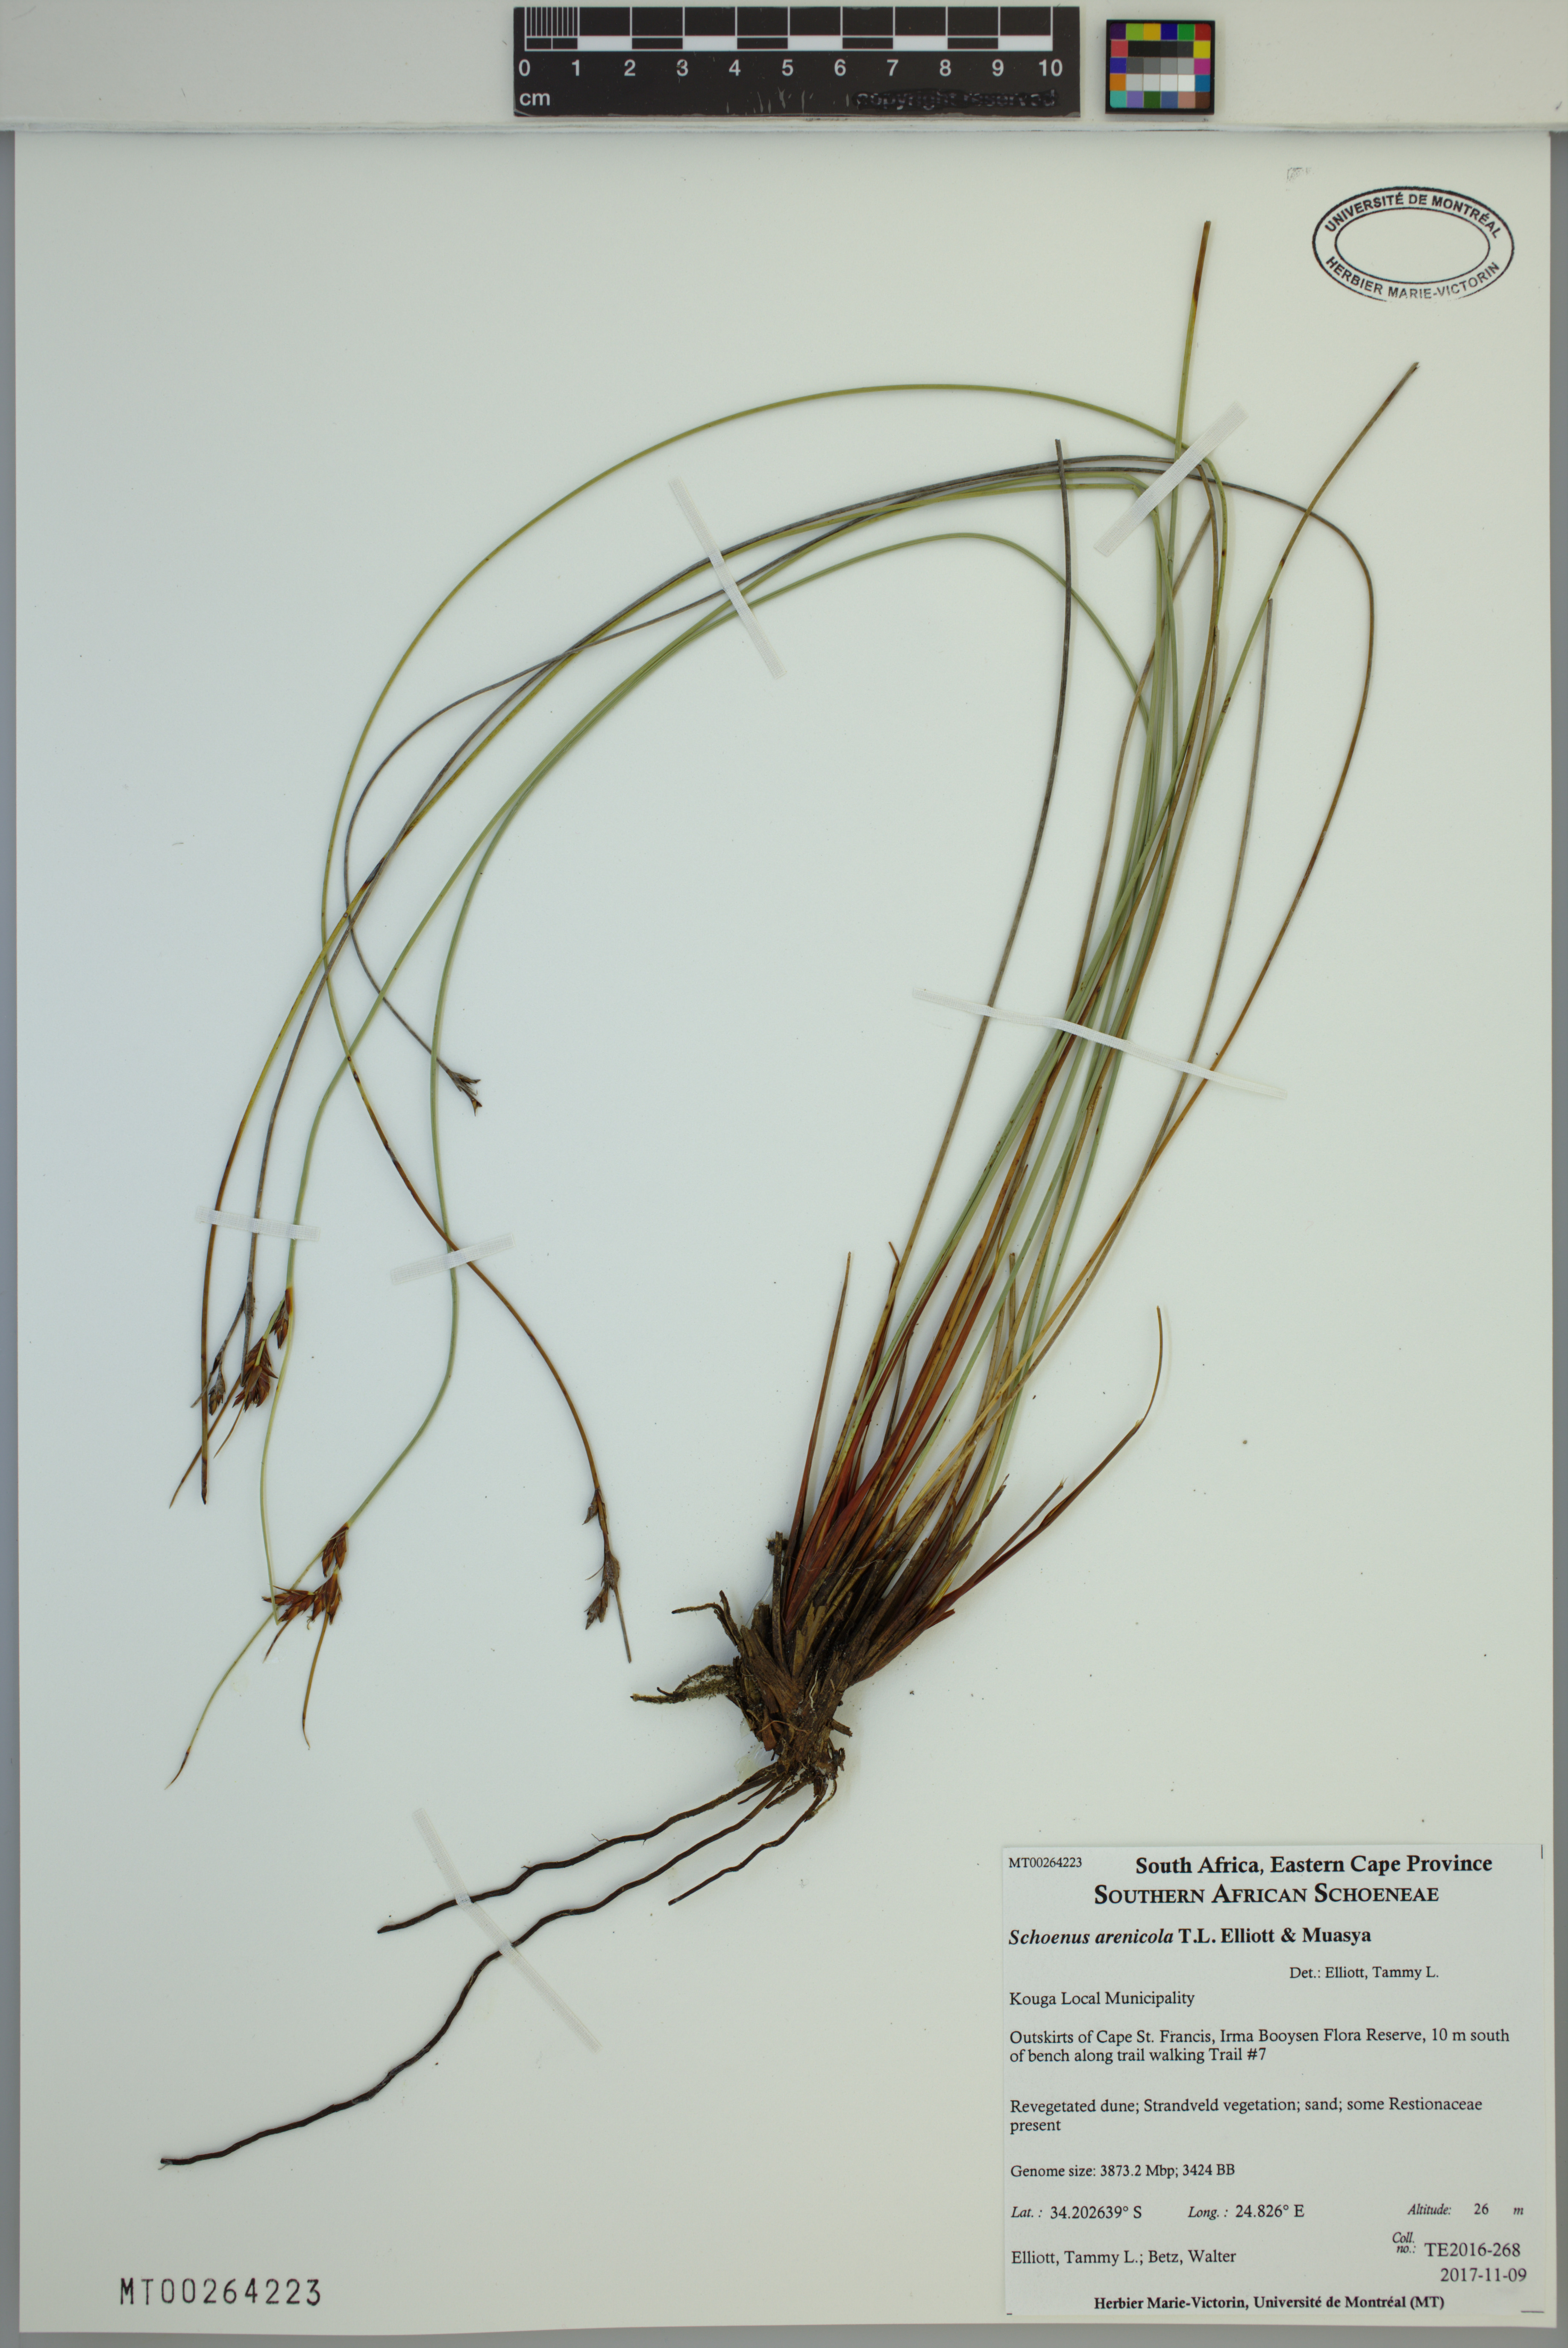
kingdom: Plantae
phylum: Tracheophyta
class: Liliopsida
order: Poales
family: Cyperaceae
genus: Schoenus
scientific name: Schoenus arenicola
